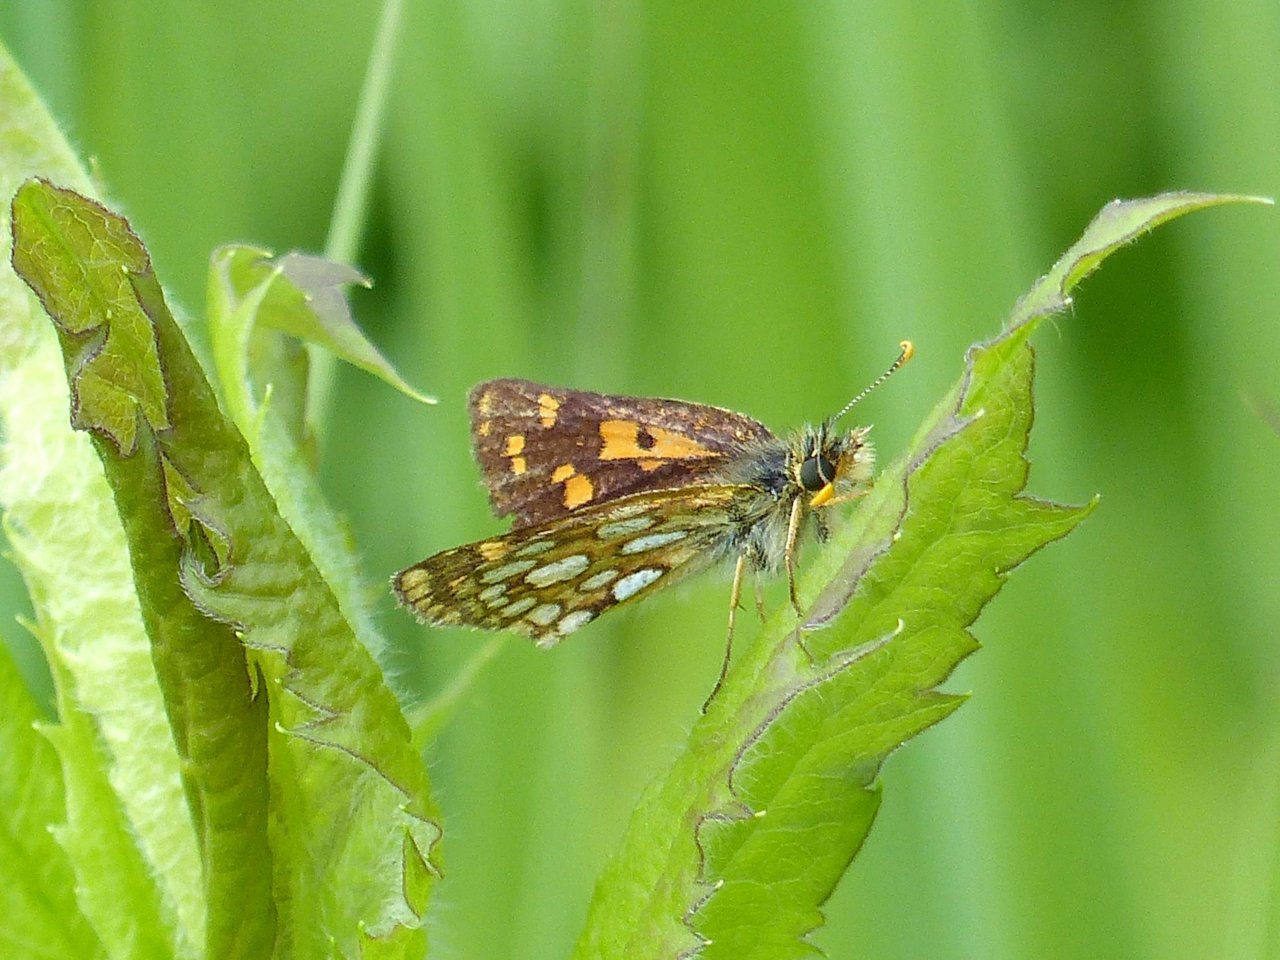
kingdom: Animalia
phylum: Arthropoda
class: Insecta
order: Lepidoptera
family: Hesperiidae
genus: Carterocephalus
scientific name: Carterocephalus palaemon
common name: Chequered Skipper
